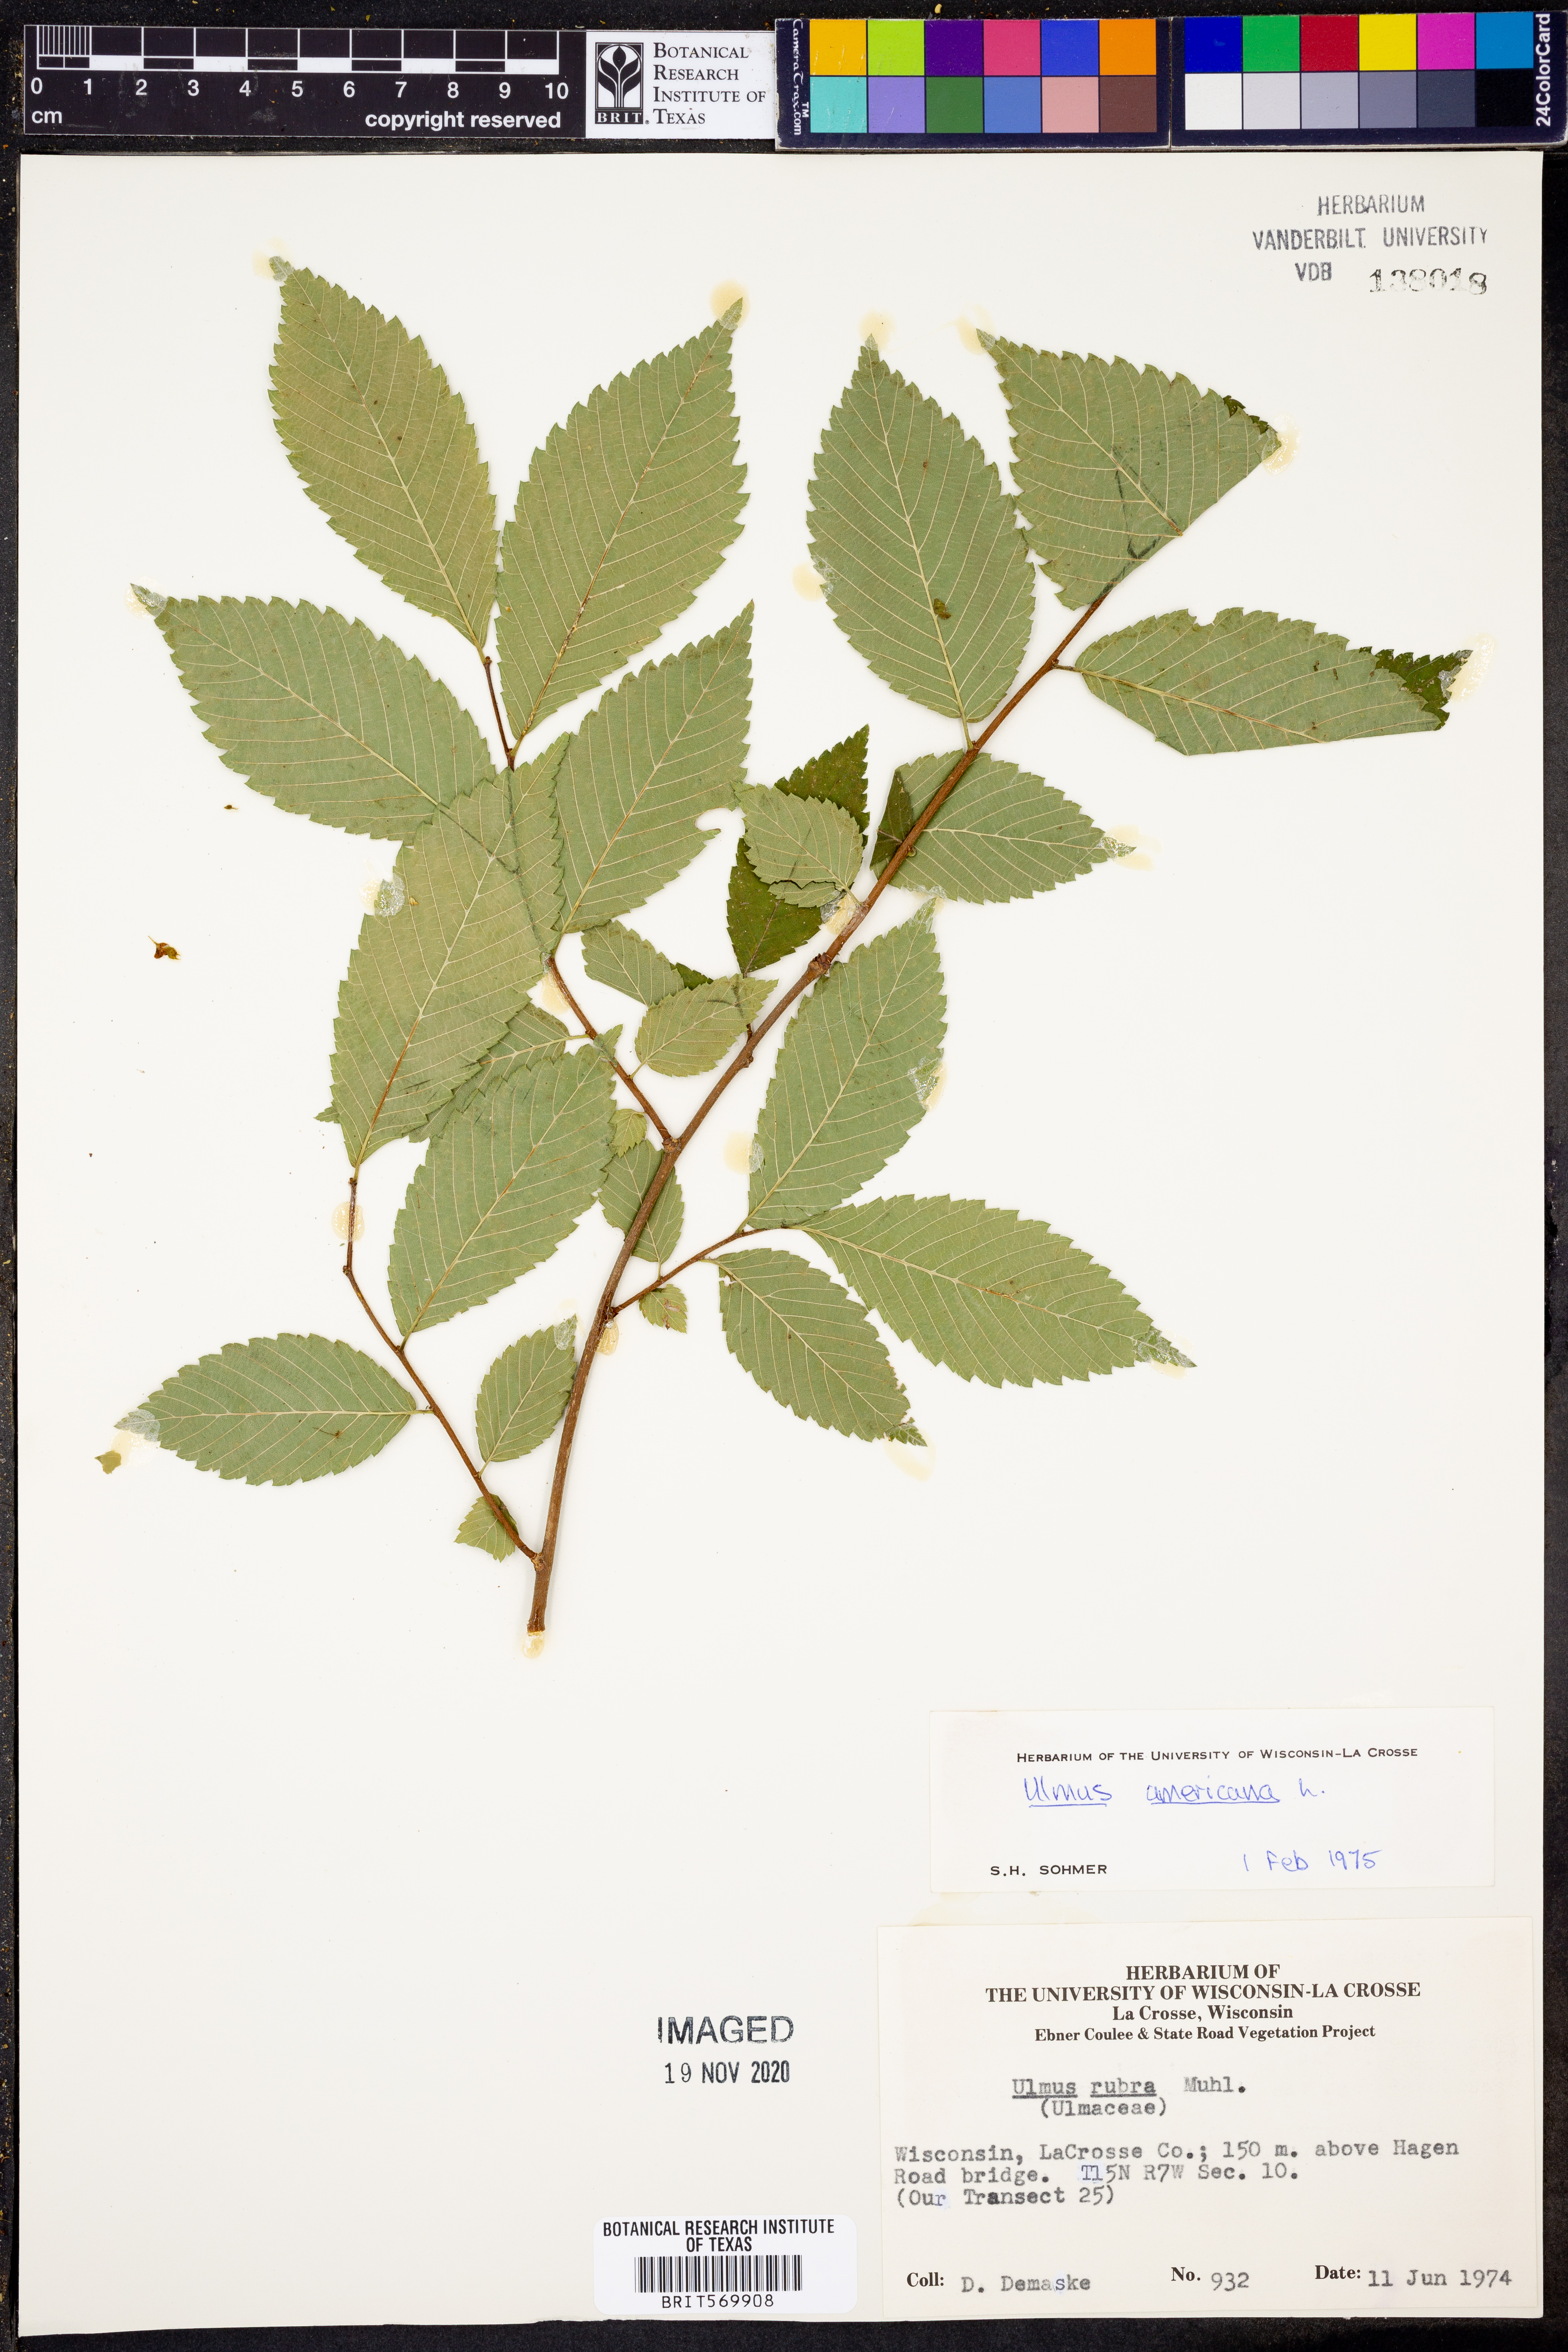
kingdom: Plantae
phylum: Tracheophyta
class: Magnoliopsida
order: Rosales
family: Ulmaceae
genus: Ulmus
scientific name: Ulmus americana
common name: American elm
